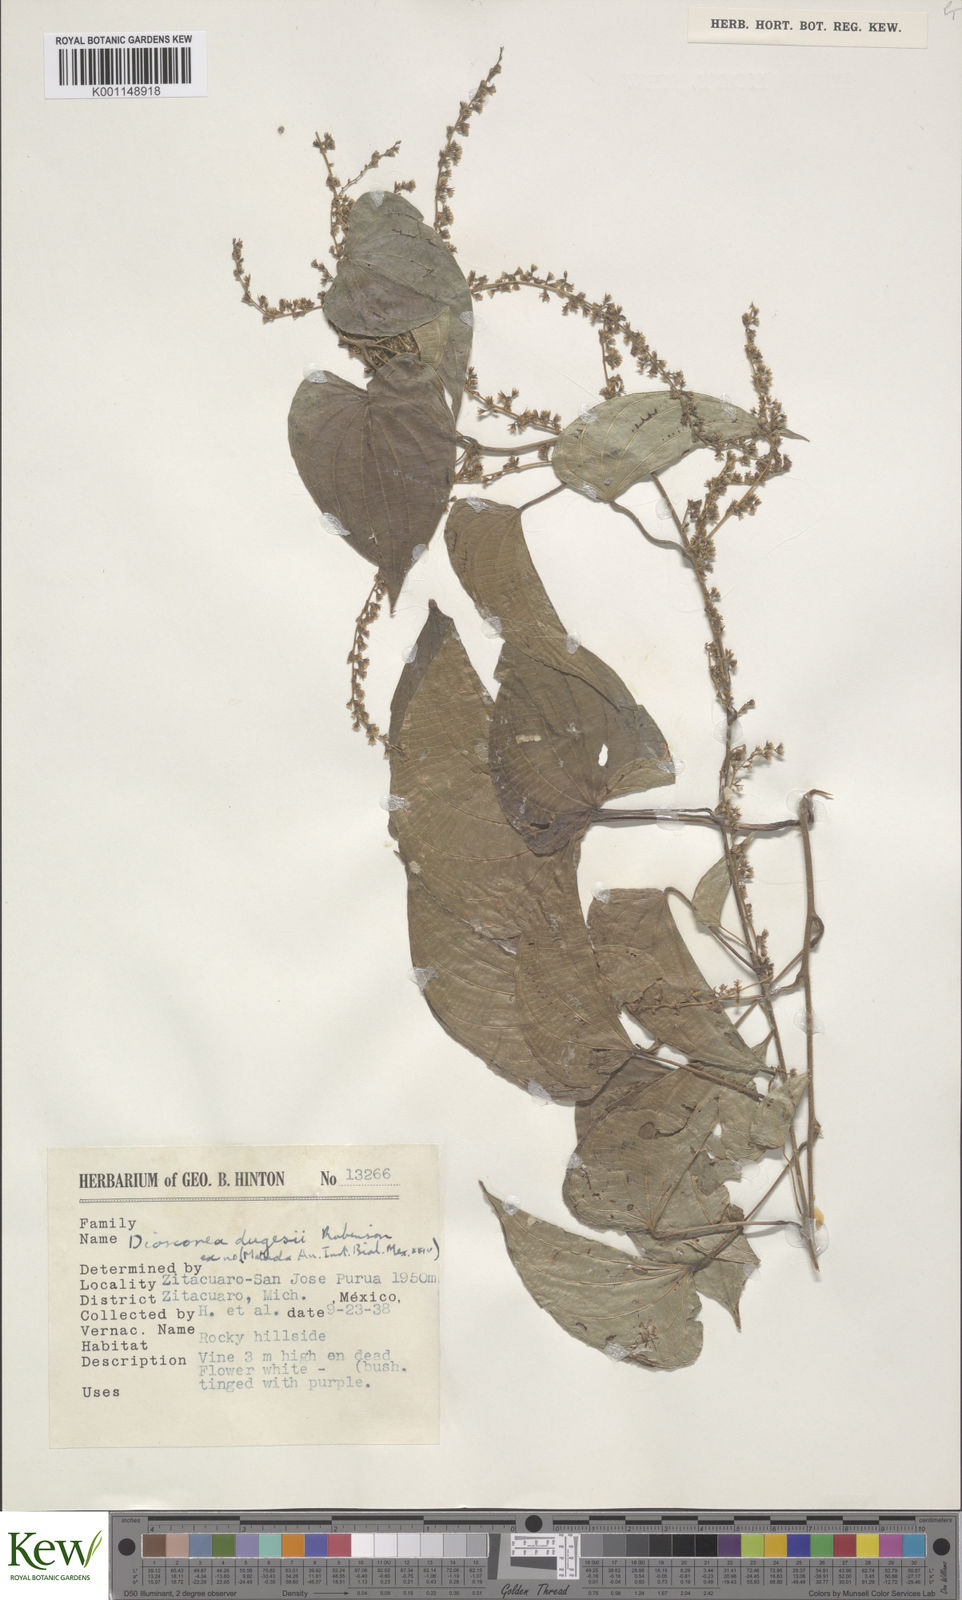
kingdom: Plantae
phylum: Tracheophyta
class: Liliopsida
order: Dioscoreales
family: Dioscoreaceae
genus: Dioscorea
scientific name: Dioscorea dugesii
